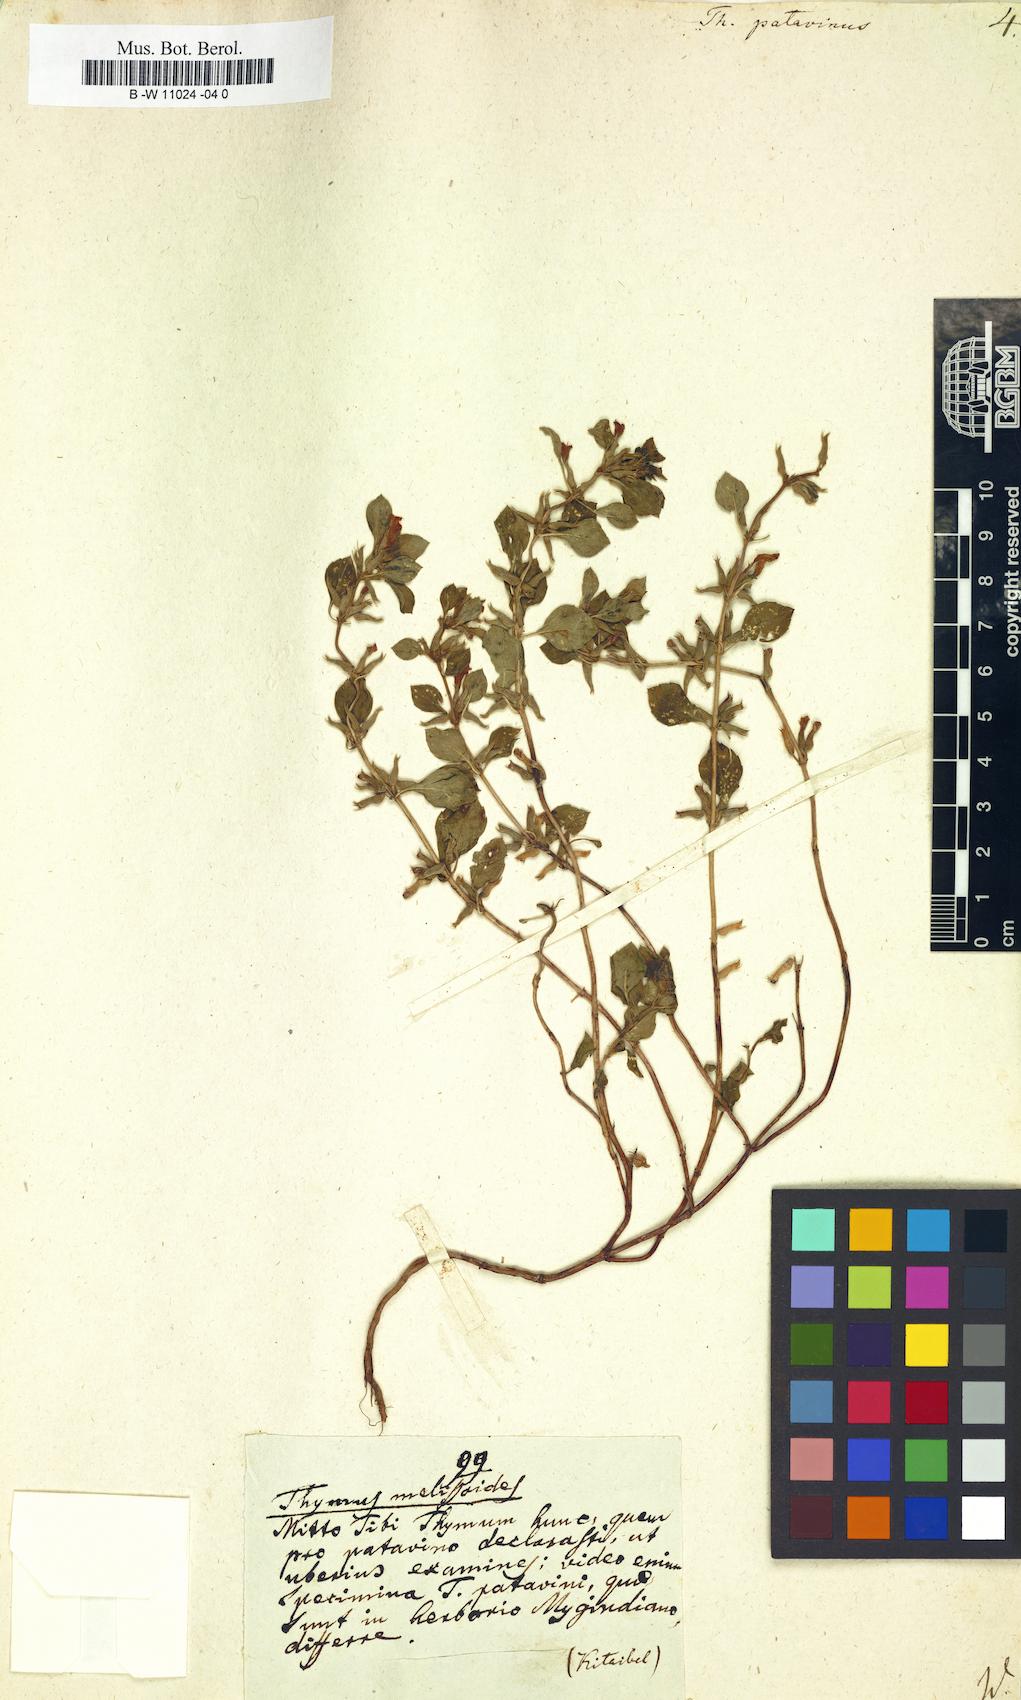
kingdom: Plantae
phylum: Tracheophyta
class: Magnoliopsida
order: Lamiales
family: Lamiaceae
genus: Clinopodium
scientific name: Clinopodium alpinum
